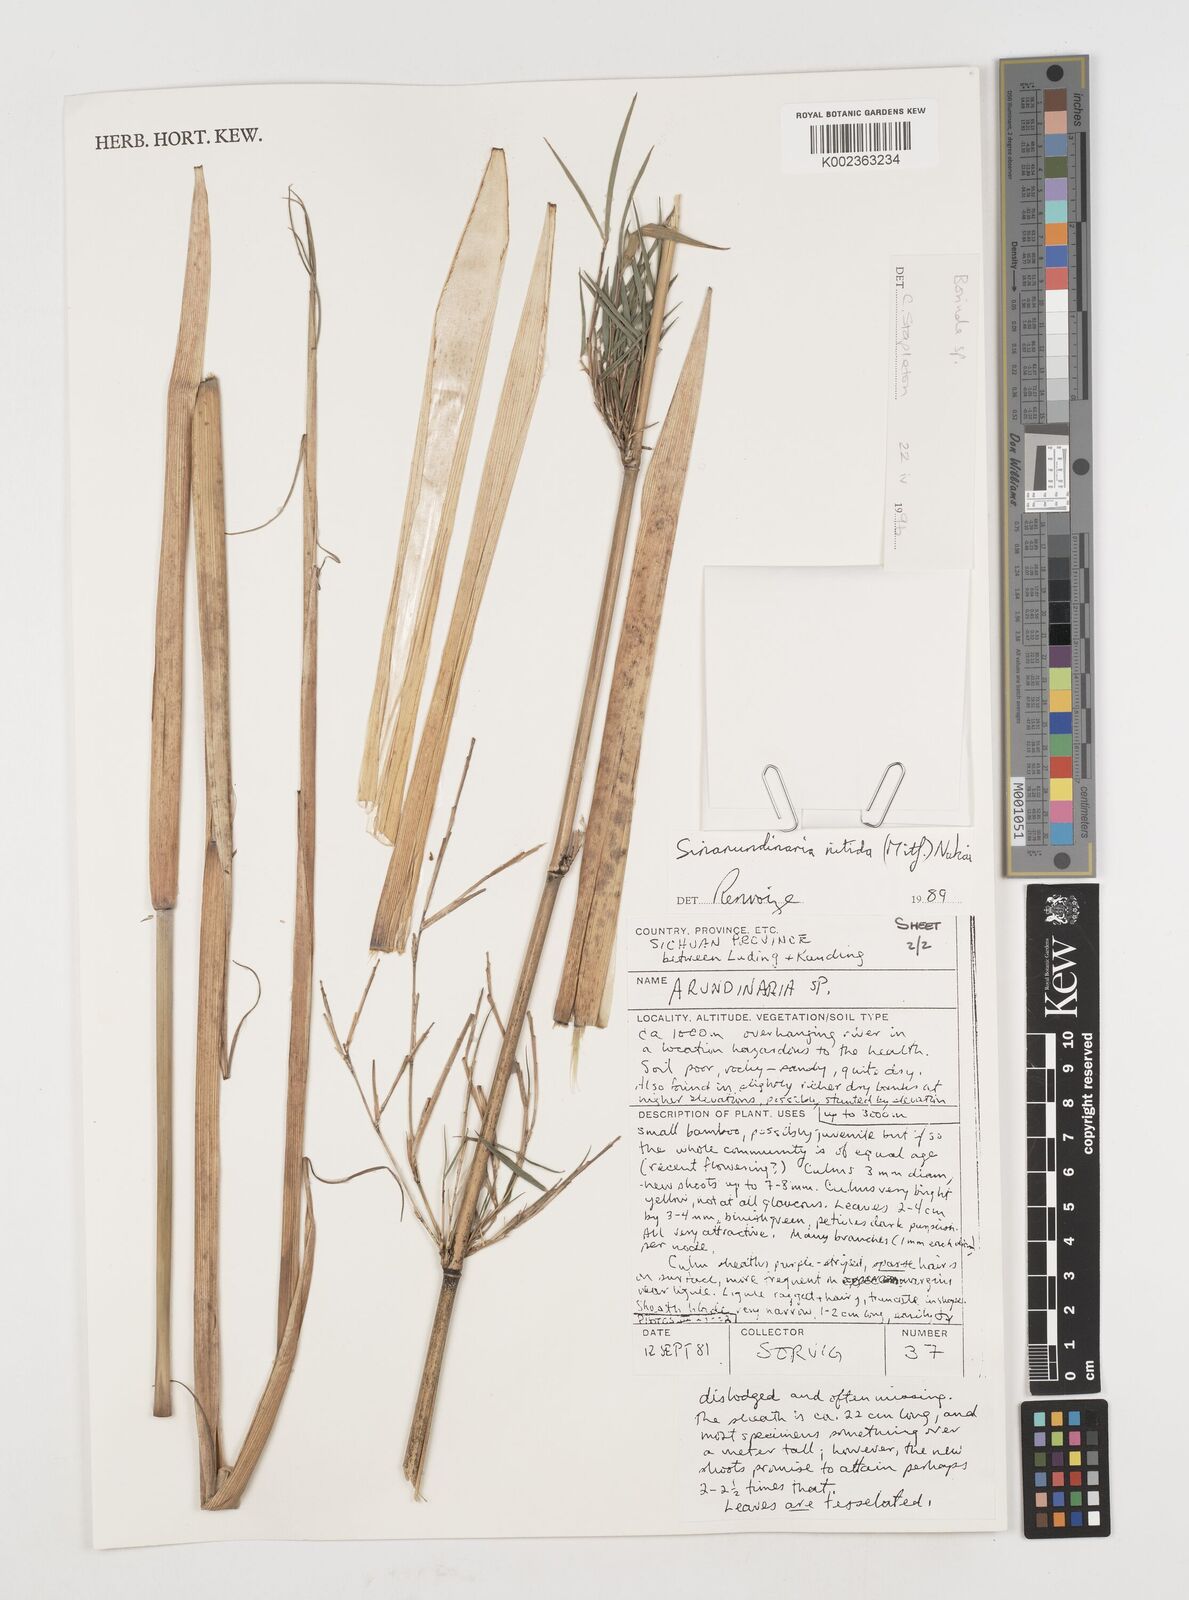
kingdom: Plantae
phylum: Tracheophyta
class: Liliopsida
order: Poales
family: Poaceae
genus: Fargesia
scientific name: Fargesia
